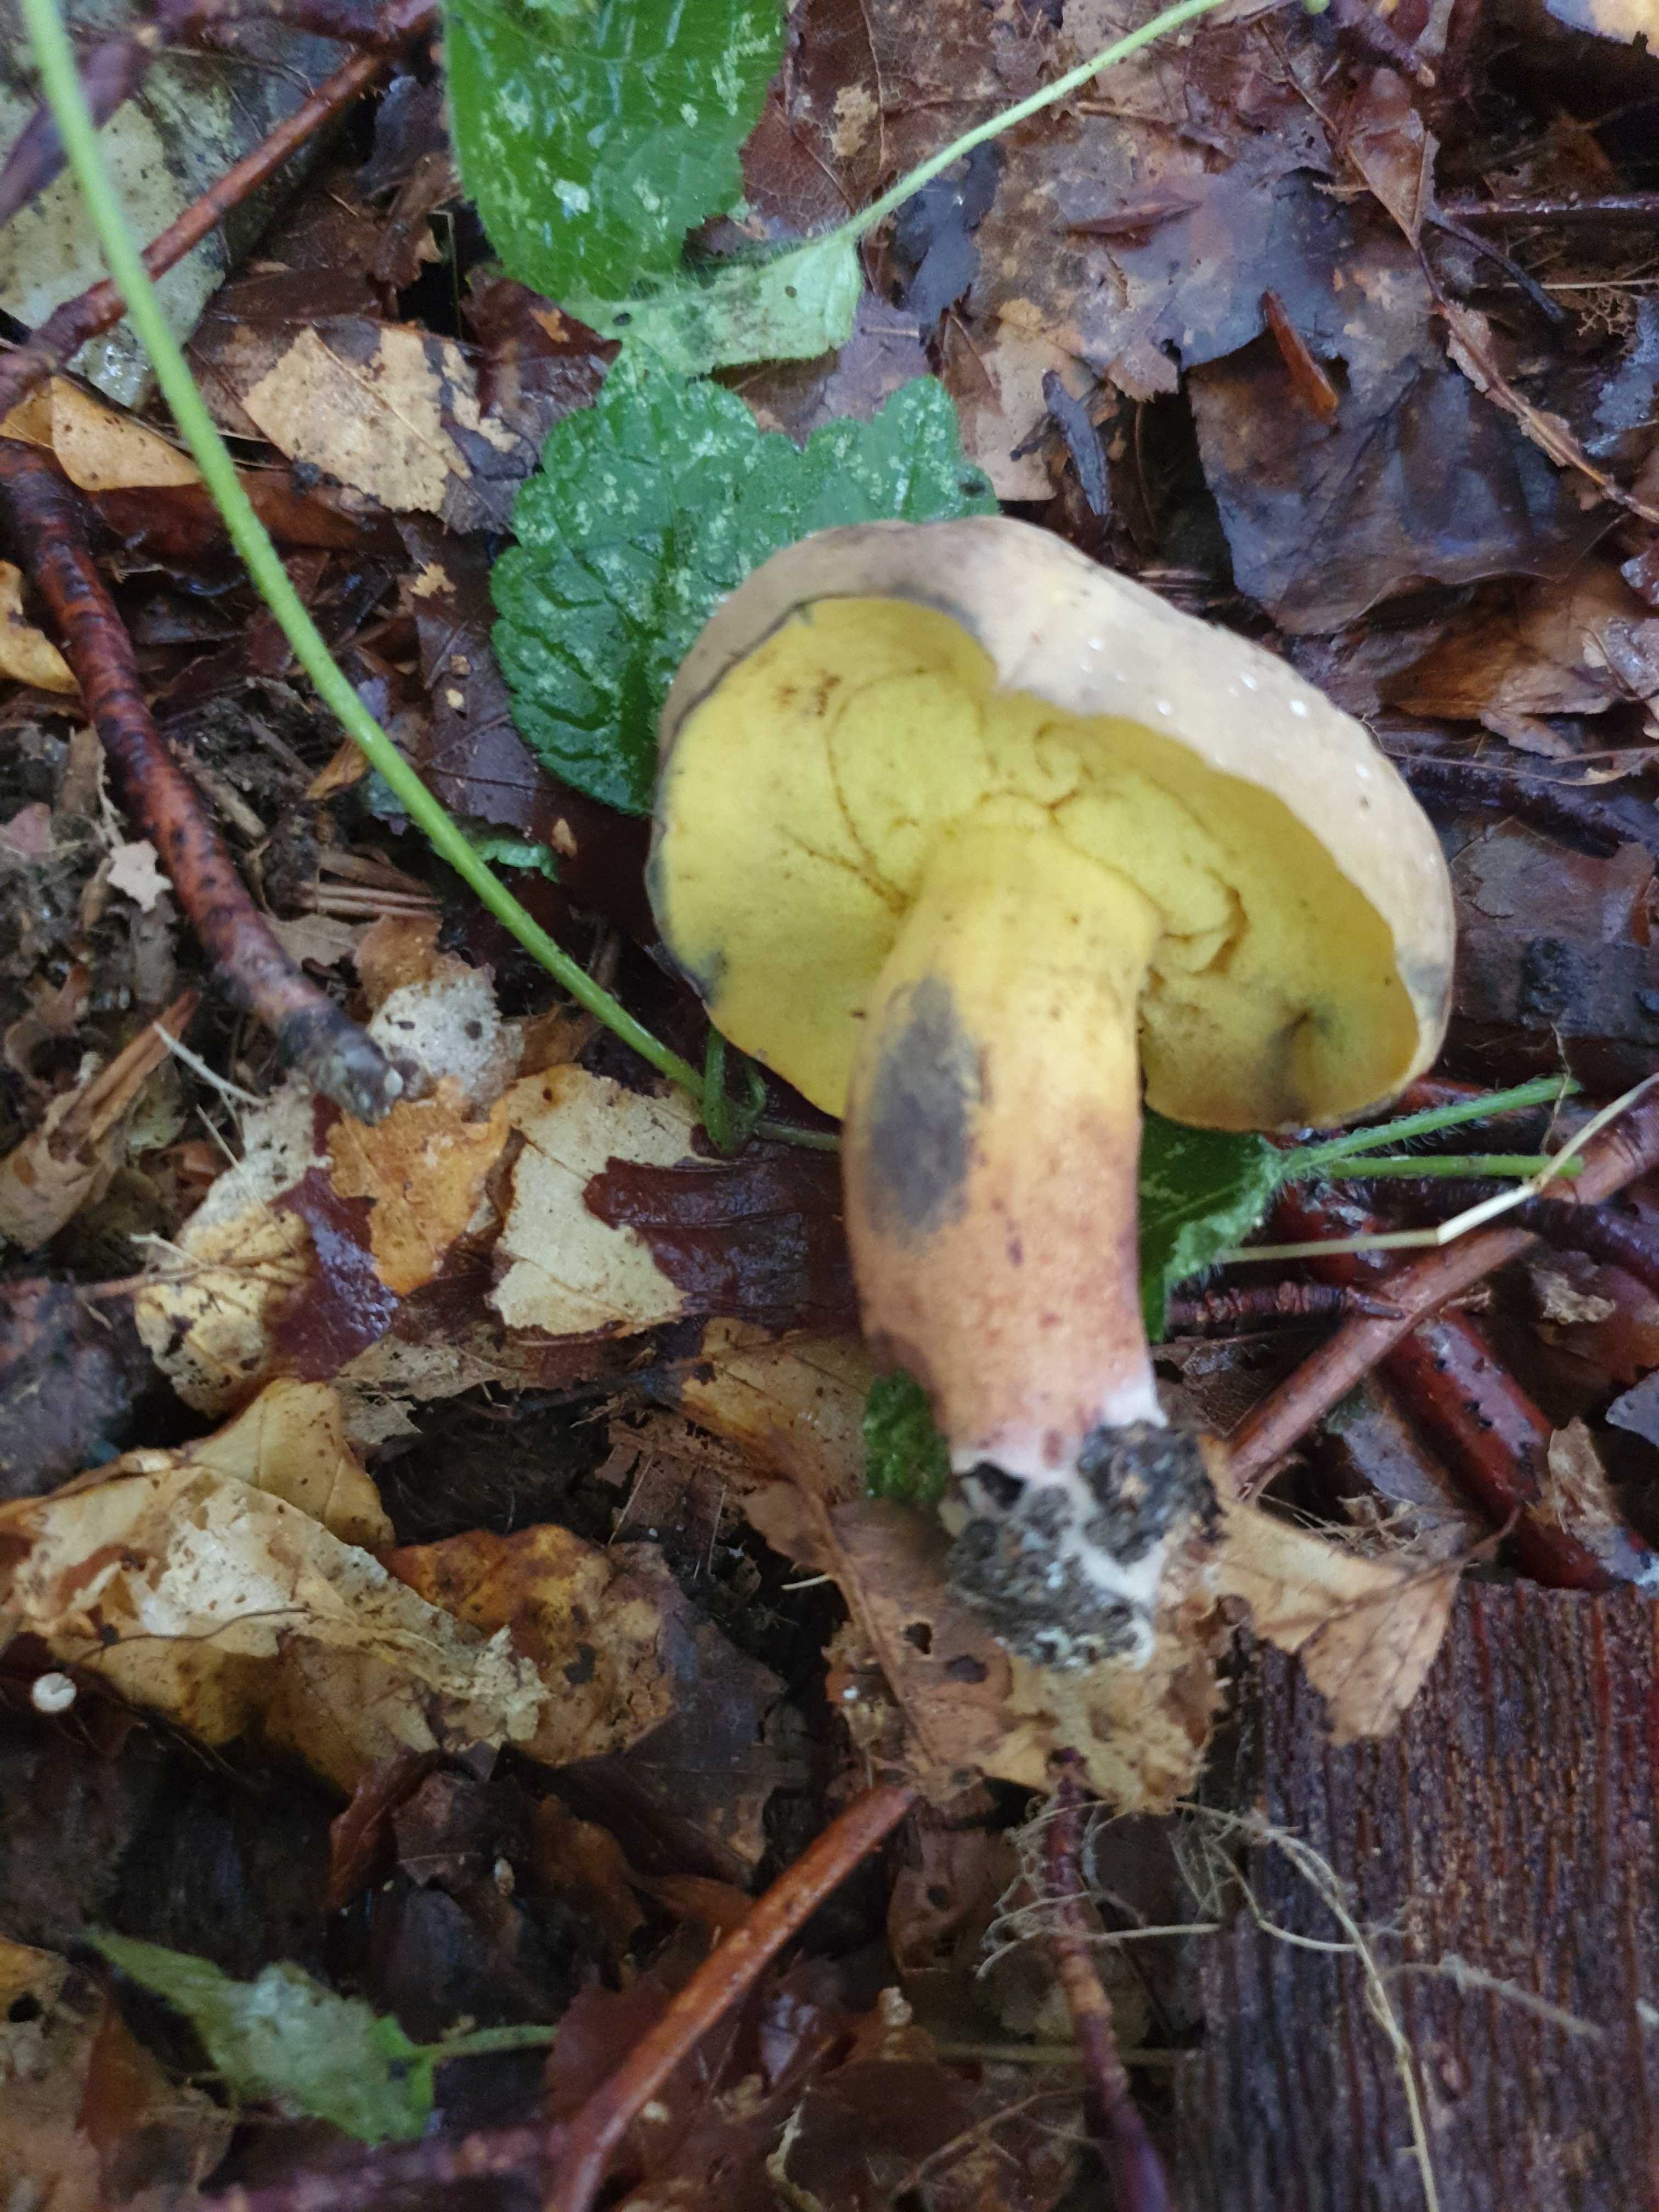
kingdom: Fungi
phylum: Basidiomycota
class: Agaricomycetes
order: Boletales
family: Boletaceae
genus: Cyanoboletus
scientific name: Cyanoboletus pulverulentus
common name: sortblånende rørhat
